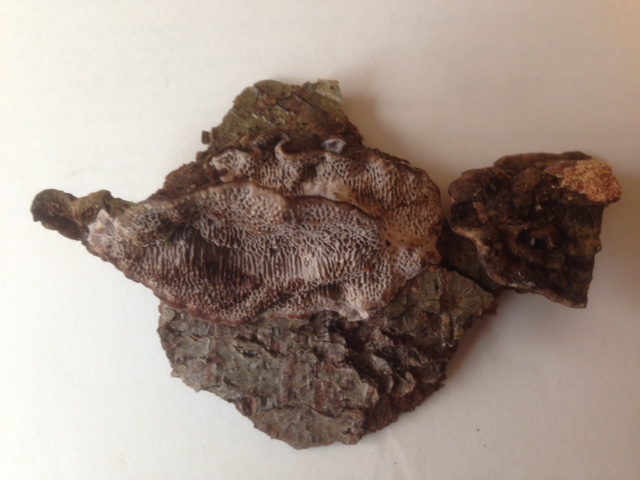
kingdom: Fungi
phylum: Basidiomycota
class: Agaricomycetes
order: Polyporales
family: Polyporaceae
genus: Podofomes
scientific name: Podofomes mollis
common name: blød begporesvamp
